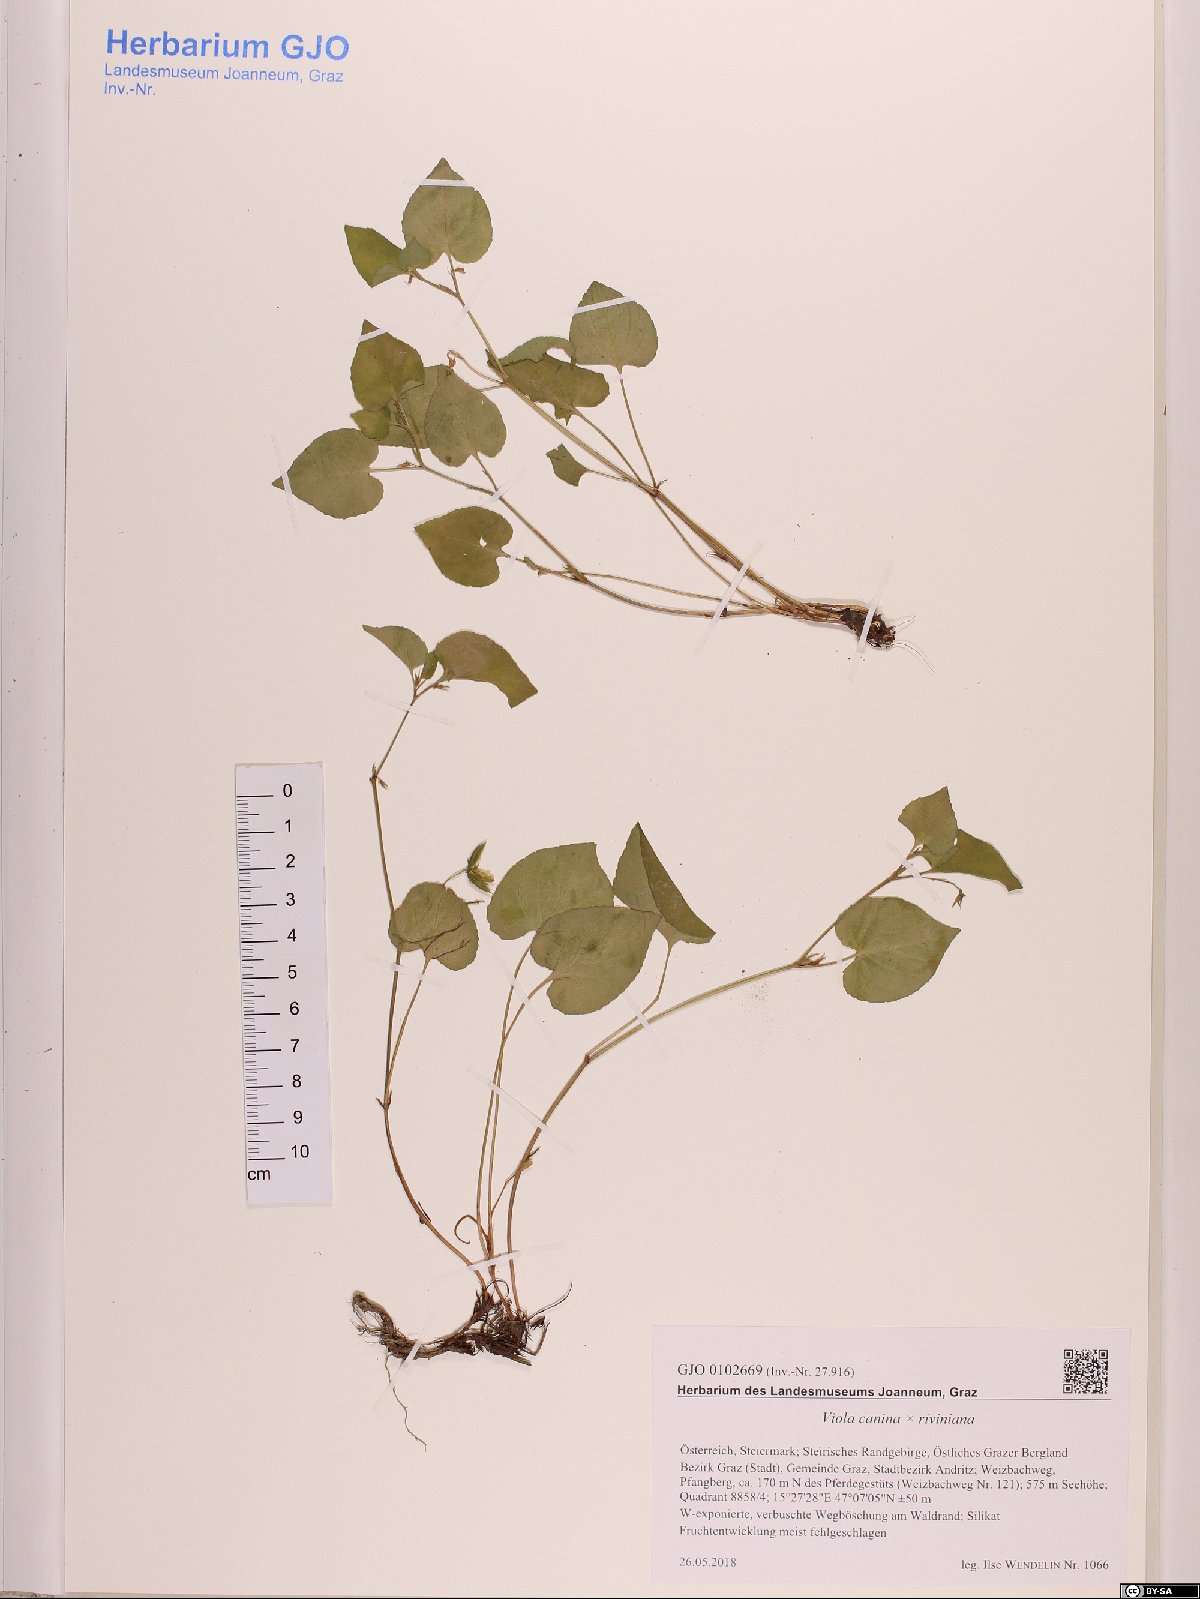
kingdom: Plantae
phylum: Tracheophyta
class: Magnoliopsida
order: Malpighiales
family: Violaceae
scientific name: Violaceae
